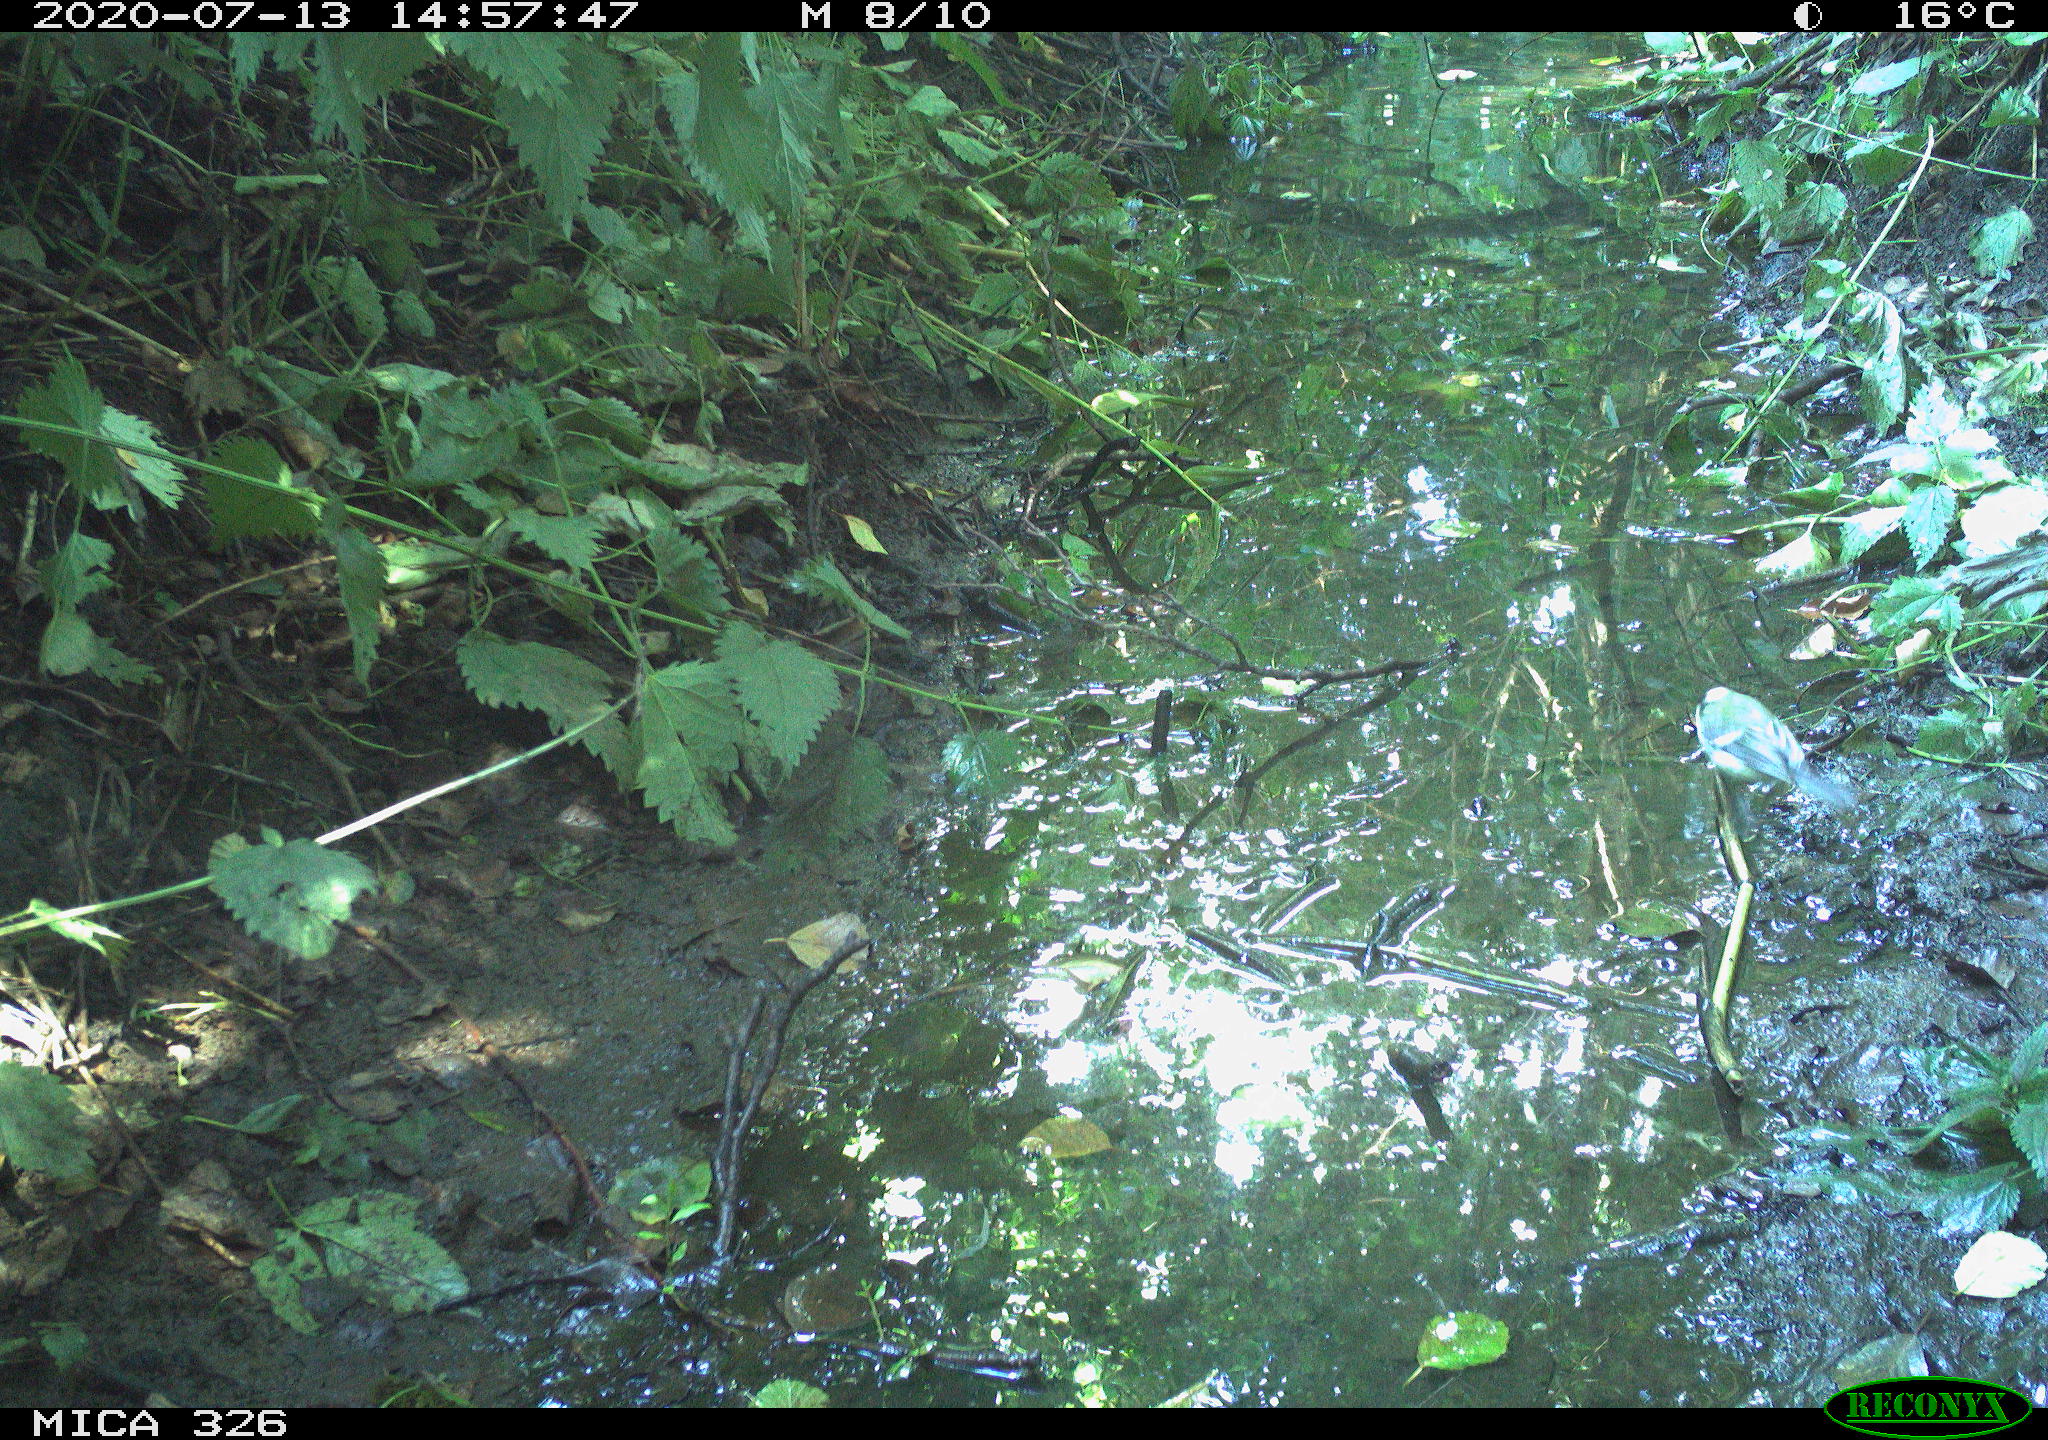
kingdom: Animalia
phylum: Chordata
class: Aves
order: Passeriformes
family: Paridae
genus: Parus
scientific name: Parus major
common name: Great tit
